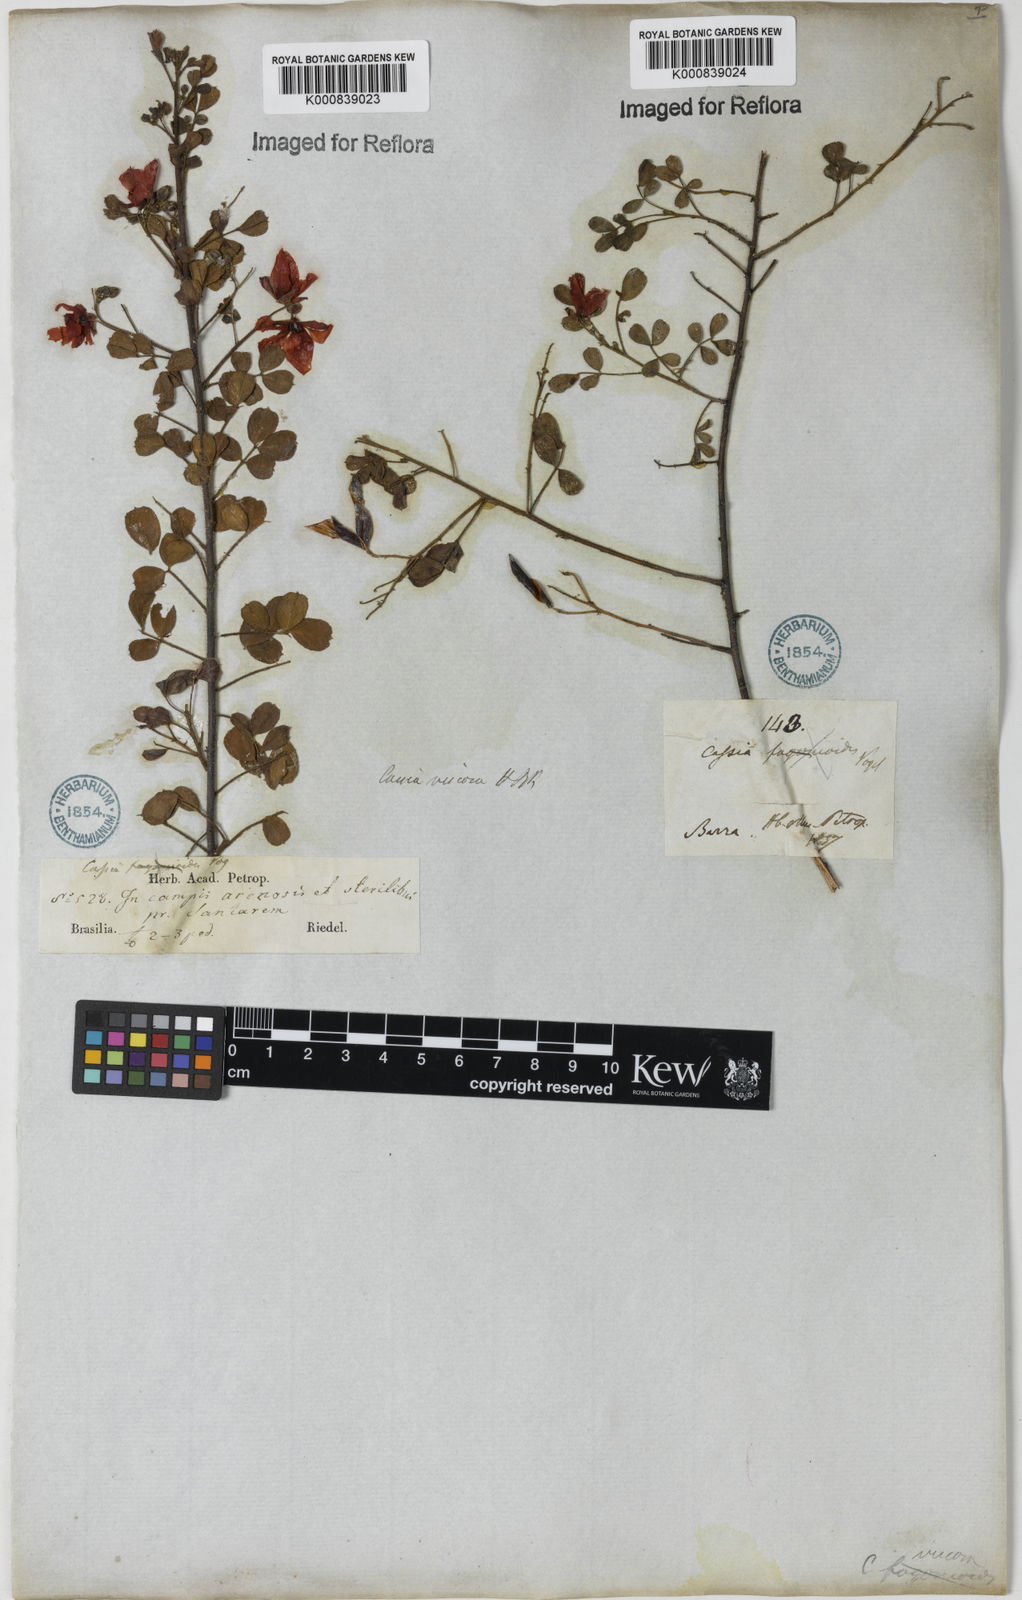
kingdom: Plantae
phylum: Tracheophyta
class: Magnoliopsida
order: Fabales
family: Fabaceae
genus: Chamaecrista
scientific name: Chamaecrista viscosa
